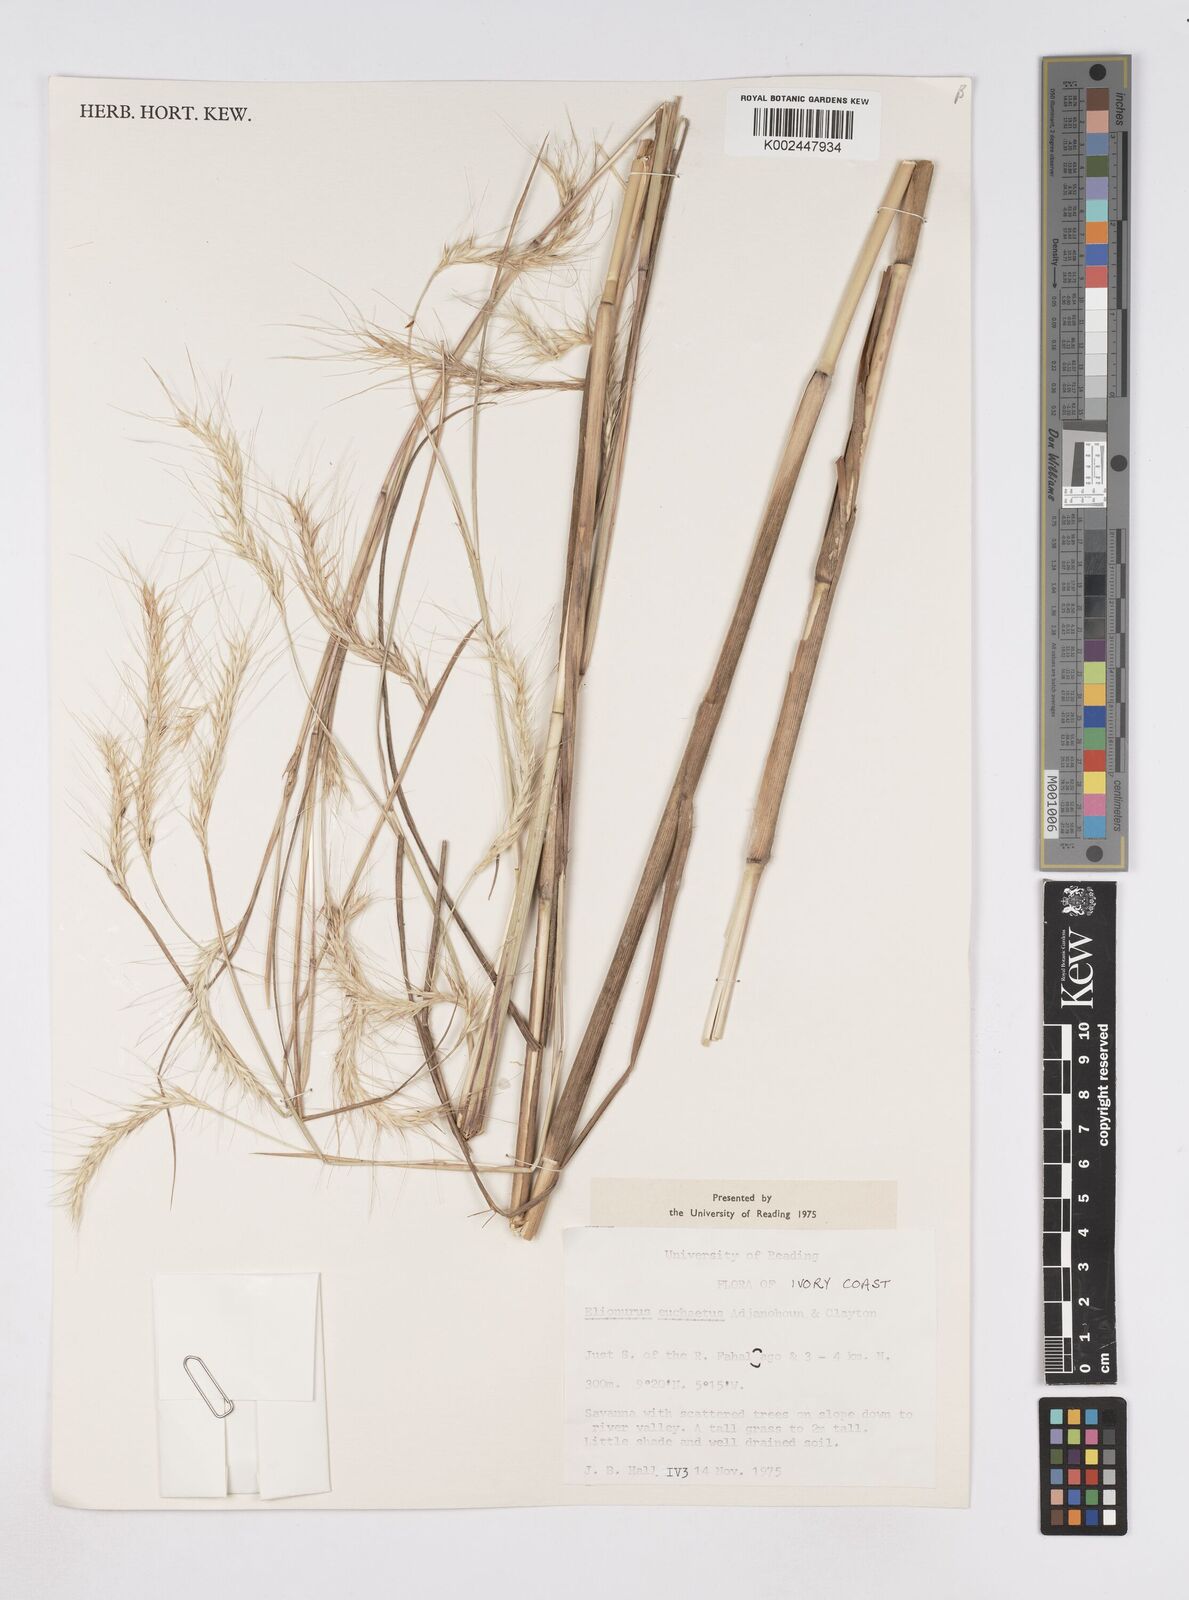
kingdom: Plantae
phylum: Tracheophyta
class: Liliopsida
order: Poales
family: Poaceae
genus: Elionurus
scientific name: Elionurus euchaetus
